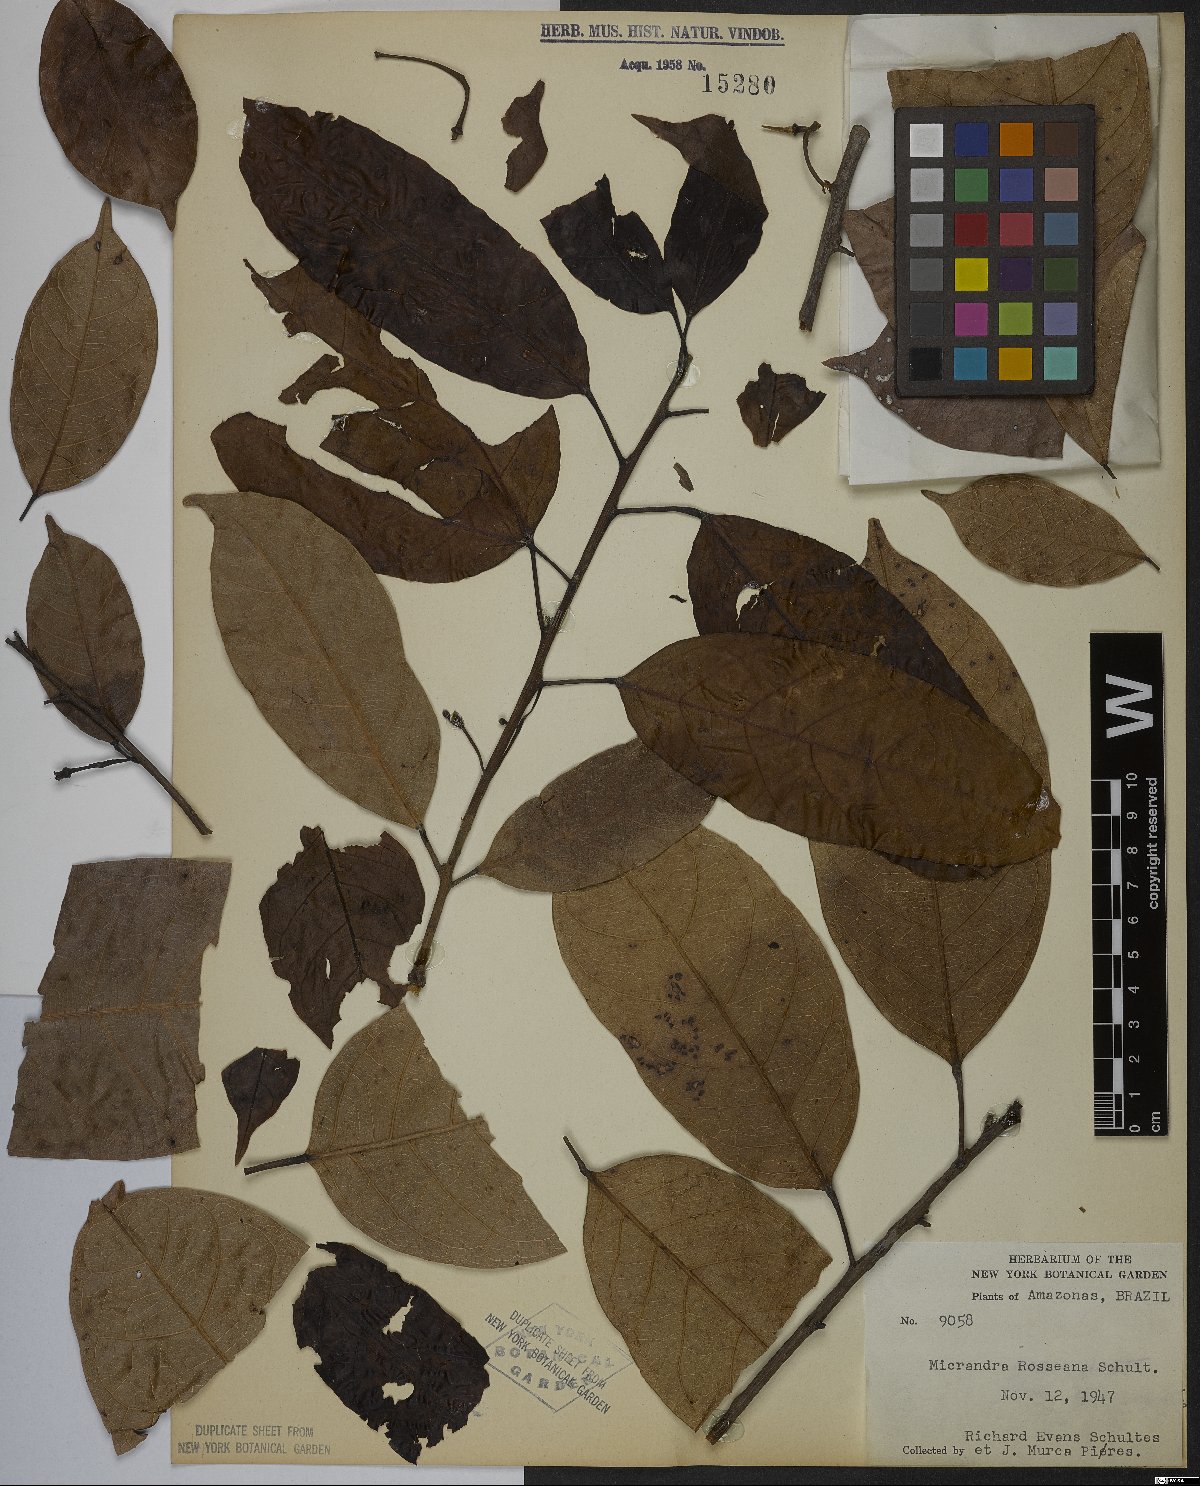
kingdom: Plantae
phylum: Tracheophyta
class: Magnoliopsida
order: Malpighiales
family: Euphorbiaceae
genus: Micrandra
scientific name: Micrandra rossiana
